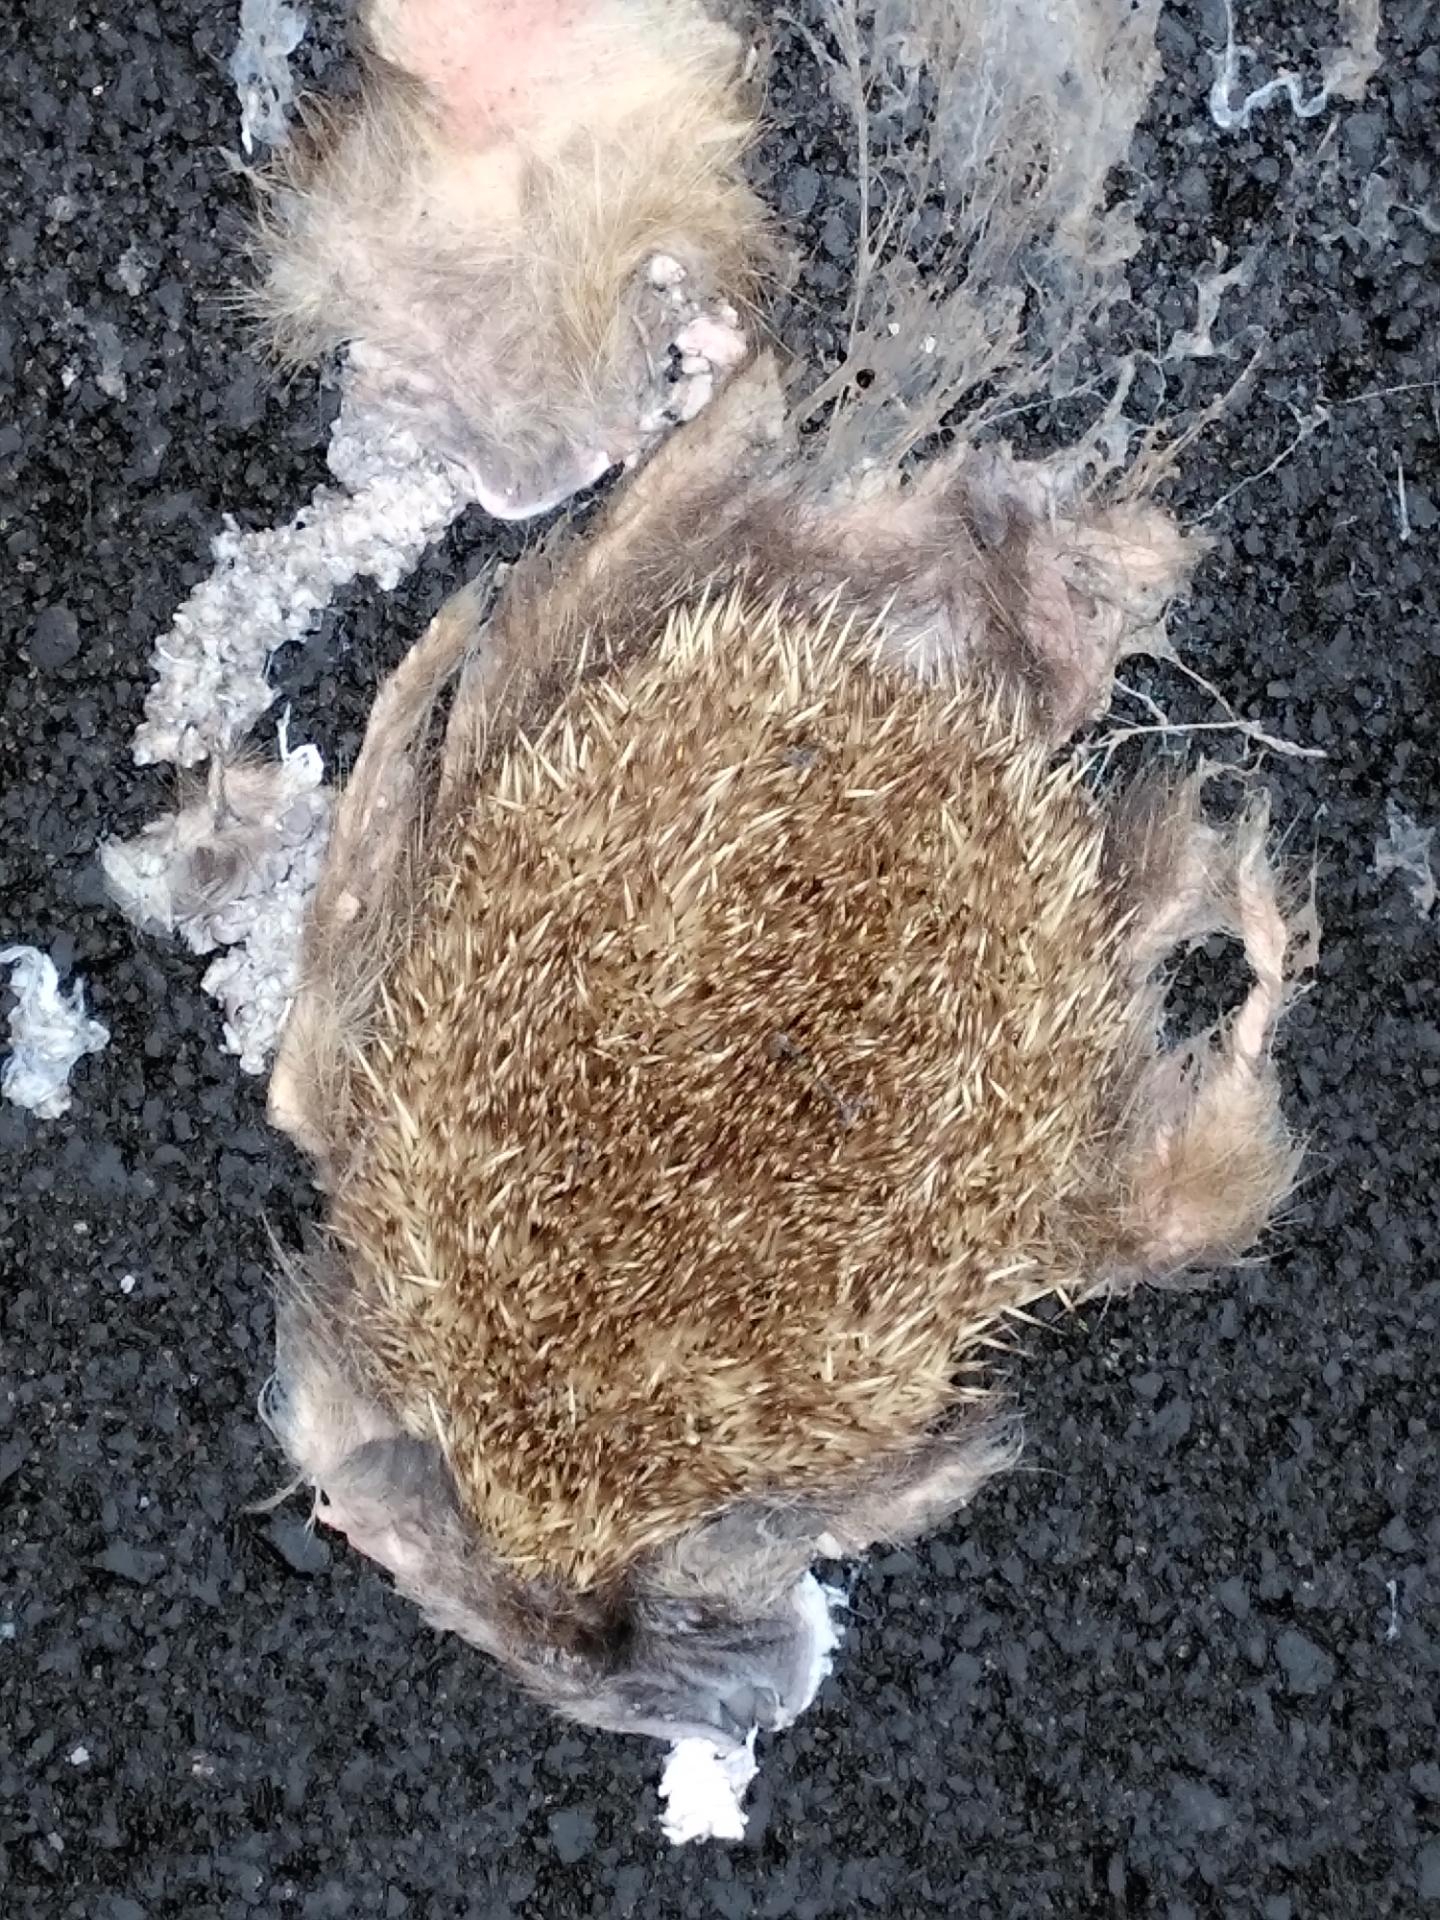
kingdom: Animalia
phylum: Chordata
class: Mammalia
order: Erinaceomorpha
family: Erinaceidae
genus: Erinaceus
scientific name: Erinaceus
